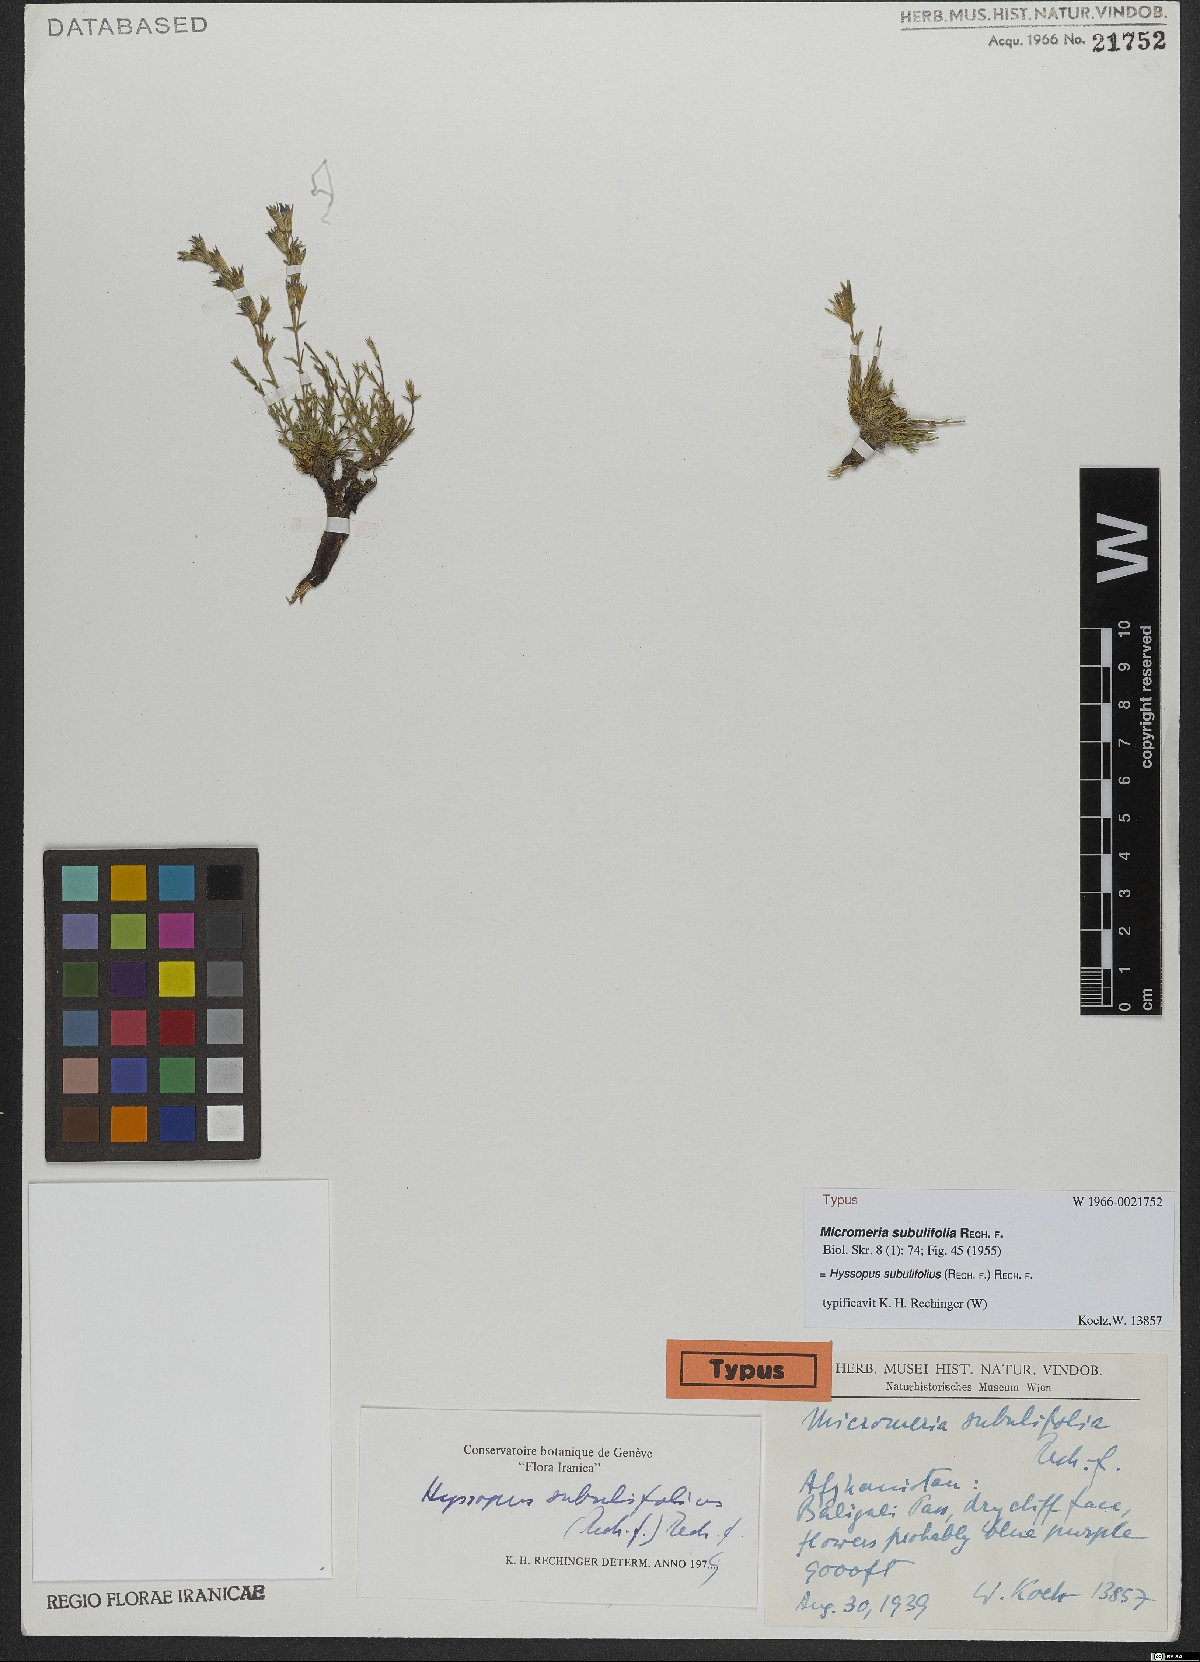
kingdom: Plantae
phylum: Tracheophyta
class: Magnoliopsida
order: Lamiales
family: Lamiaceae
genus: Hyssopus
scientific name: Hyssopus subulifolius
